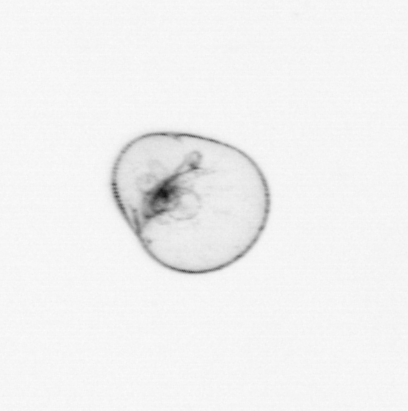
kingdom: Chromista
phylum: Myzozoa
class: Dinophyceae
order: Noctilucales
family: Noctilucaceae
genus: Noctiluca
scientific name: Noctiluca scintillans
